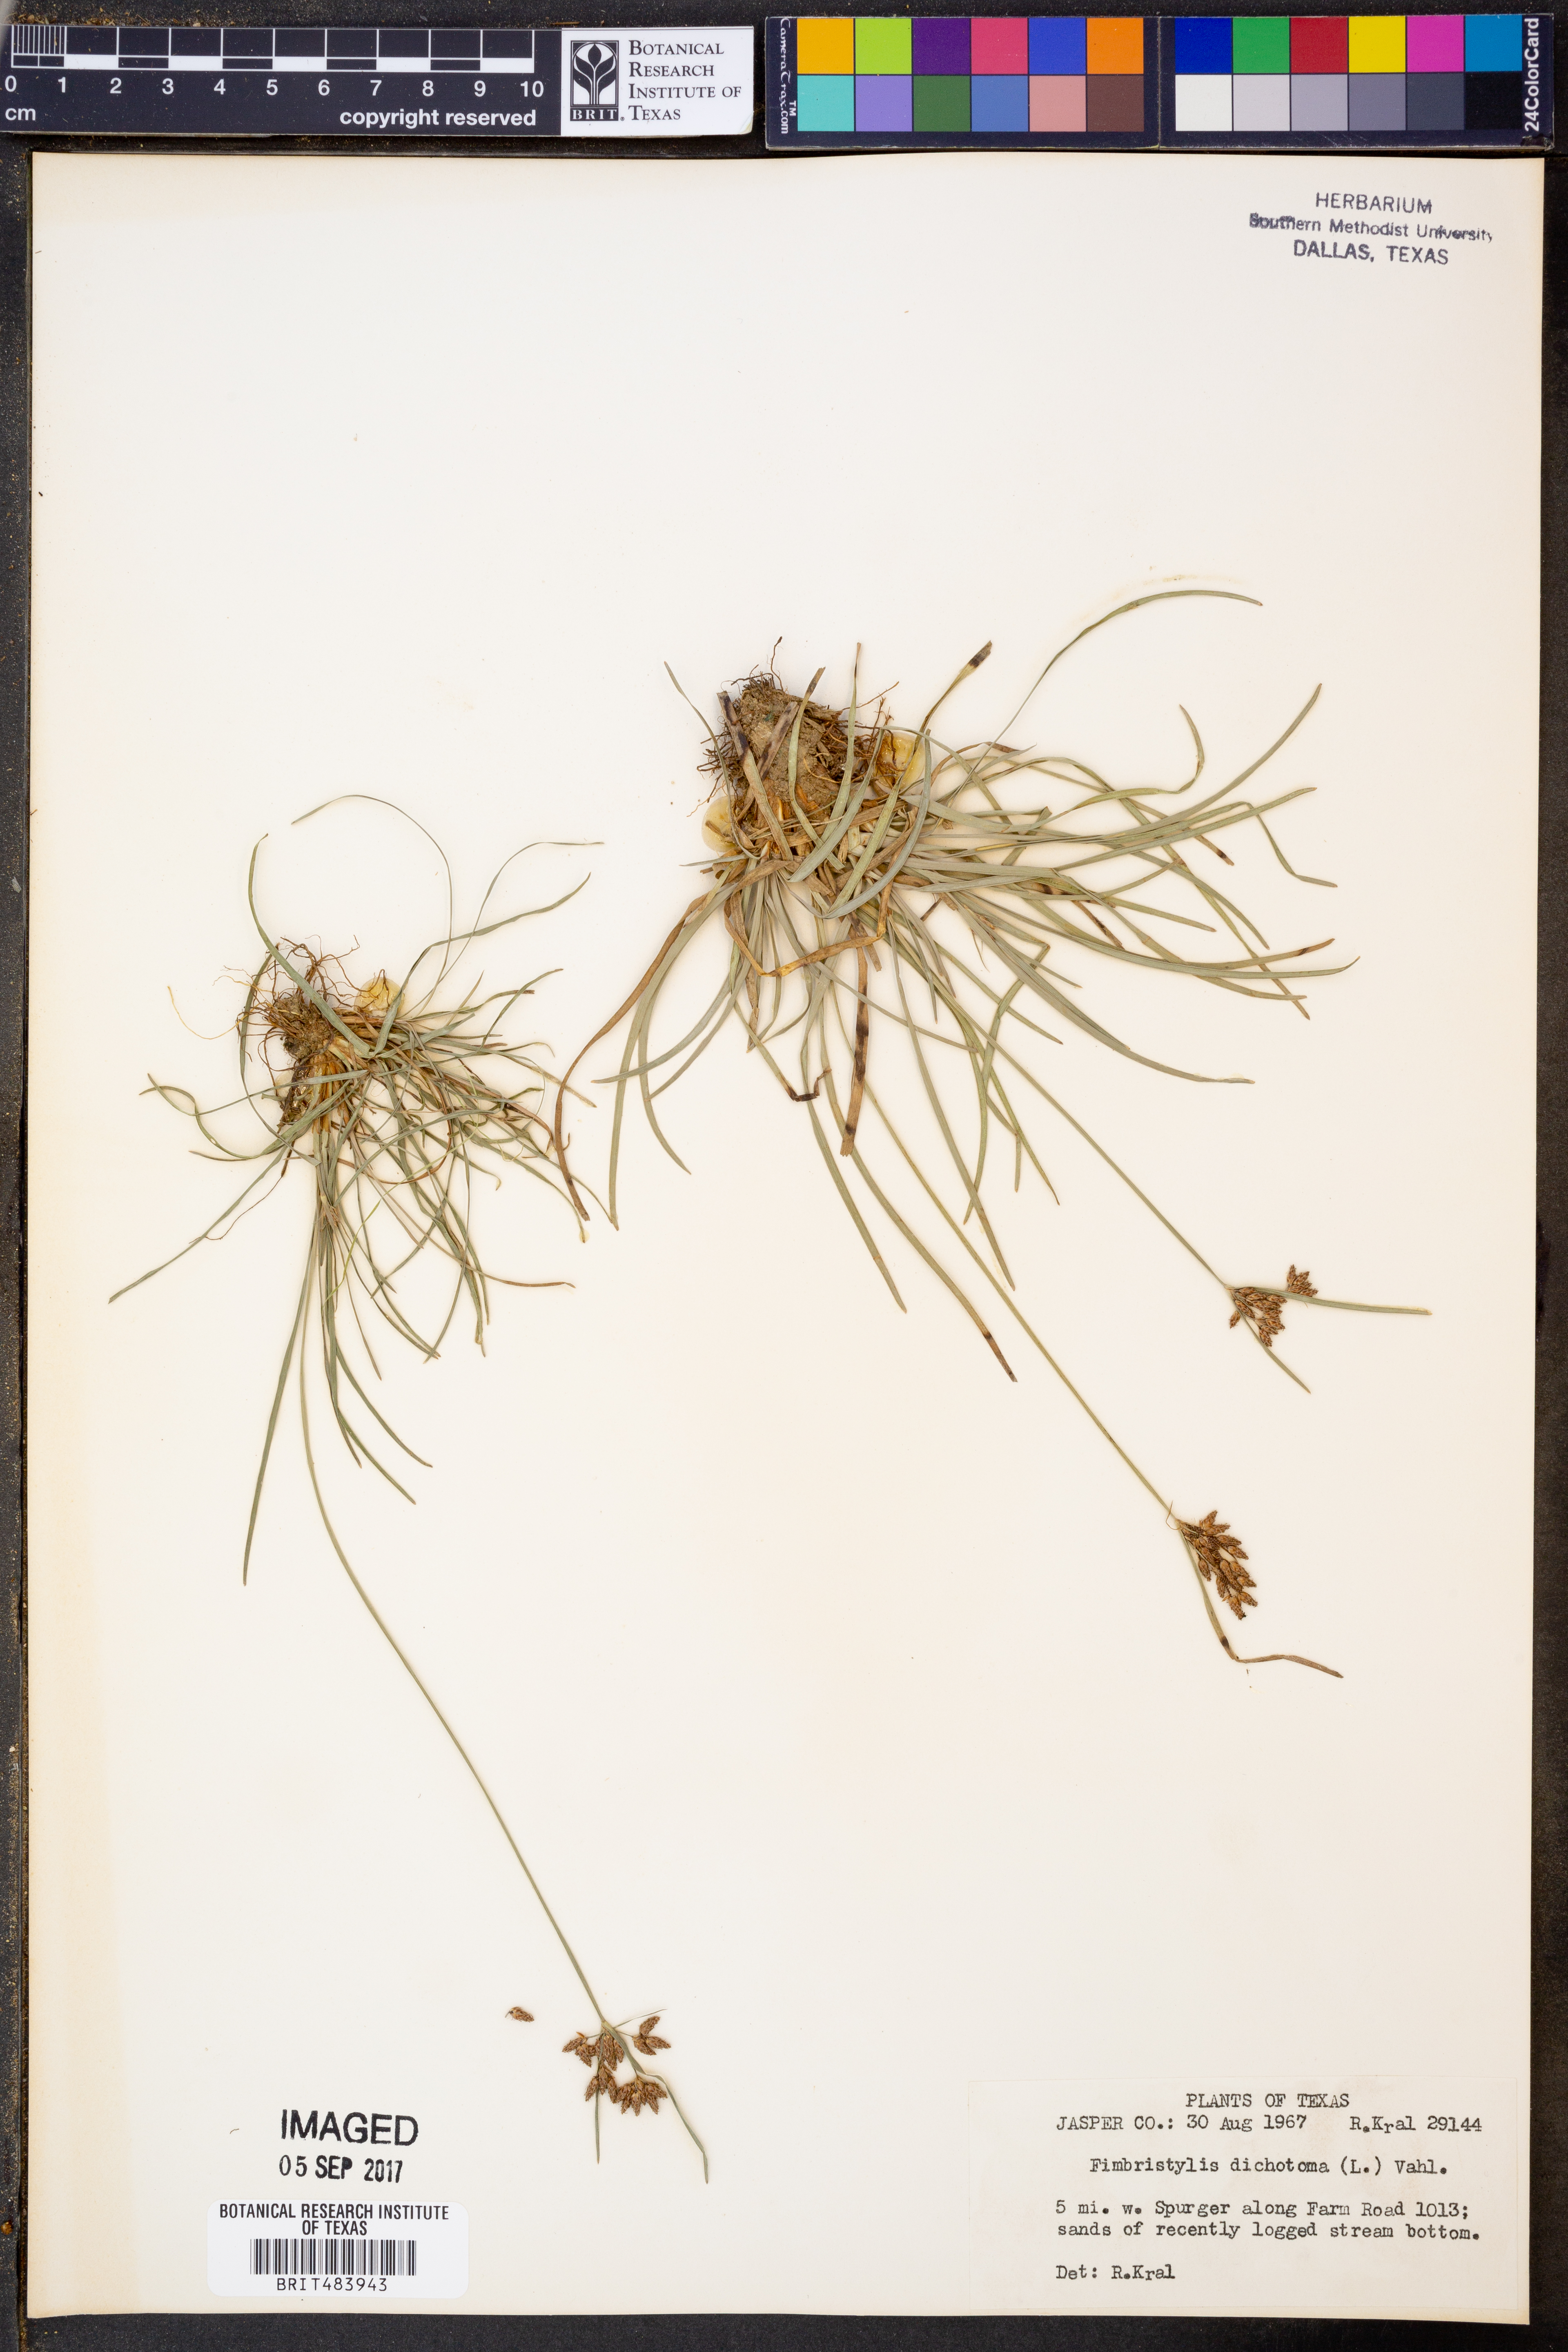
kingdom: Plantae
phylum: Tracheophyta
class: Liliopsida
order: Poales
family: Cyperaceae
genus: Fimbristylis
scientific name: Fimbristylis dichotoma
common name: Forked fimbry
